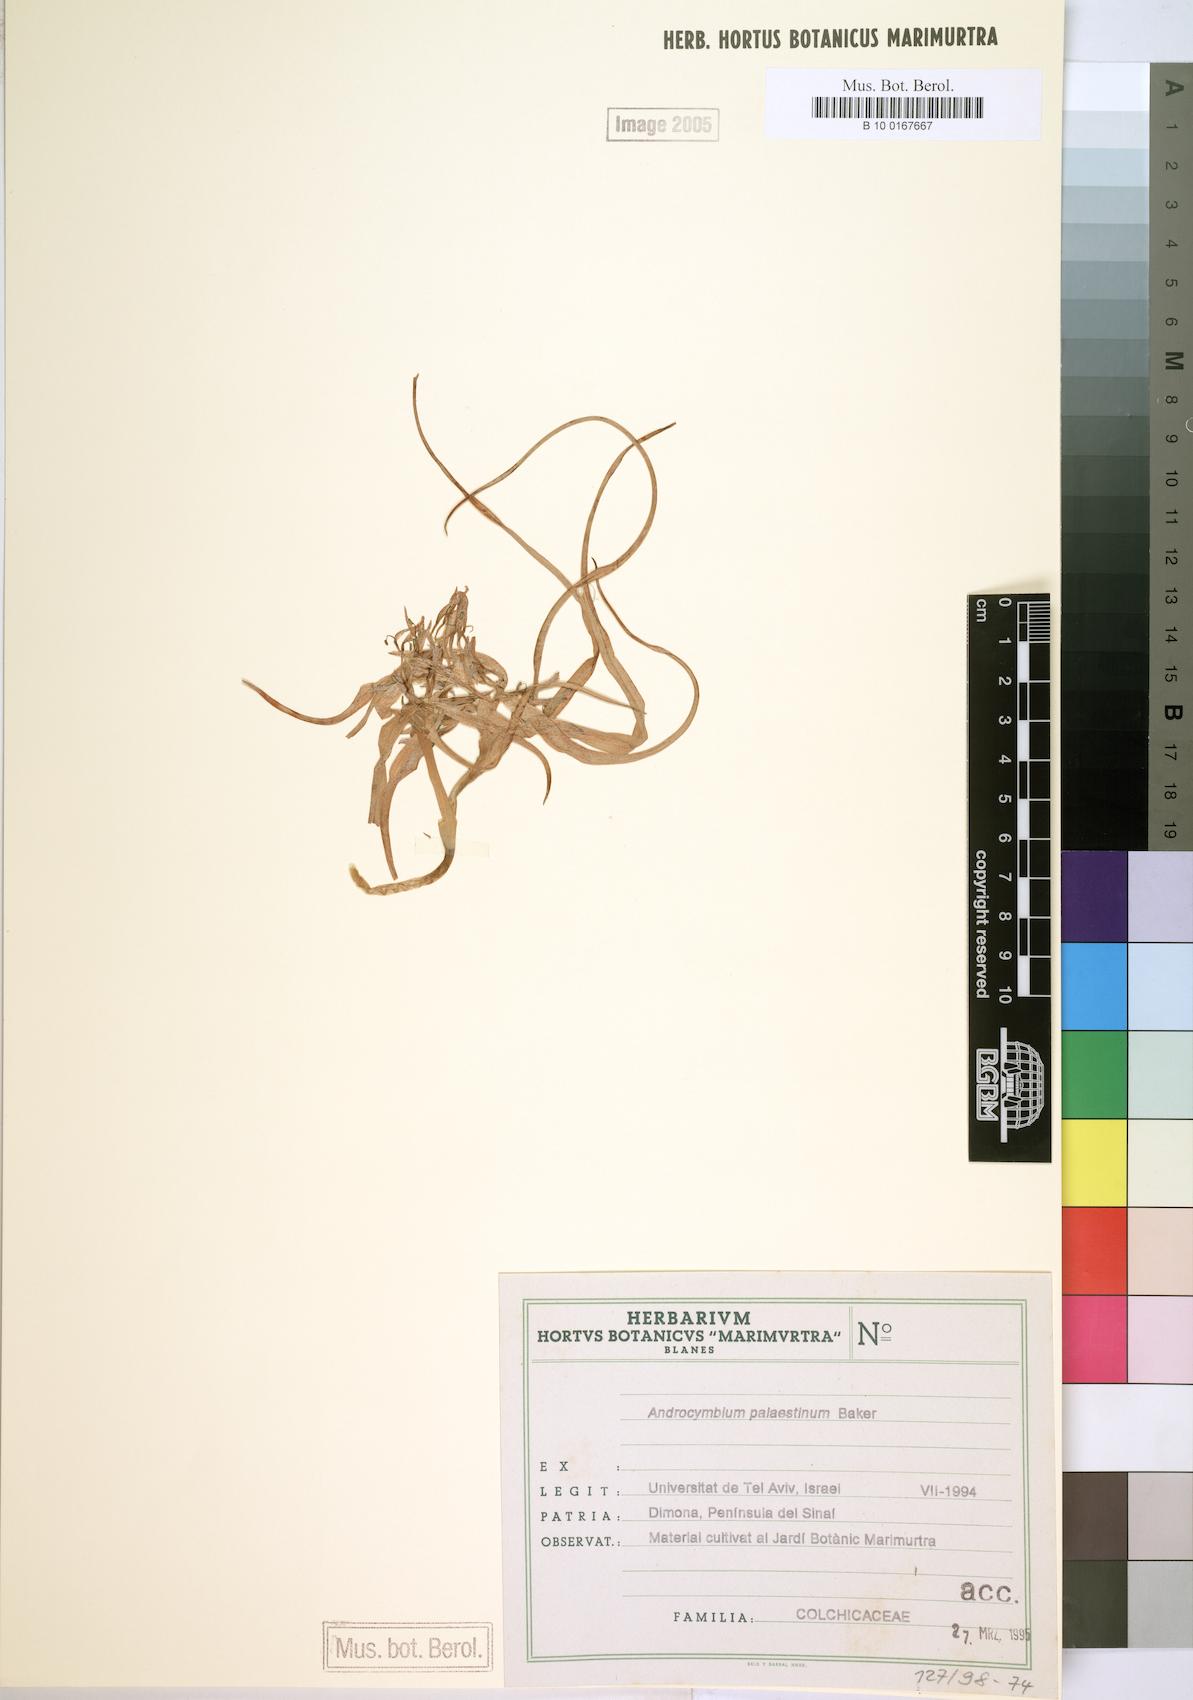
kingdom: Plantae
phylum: Tracheophyta
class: Liliopsida
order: Liliales
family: Colchicaceae
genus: Colchicum
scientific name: Colchicum palaestinum
